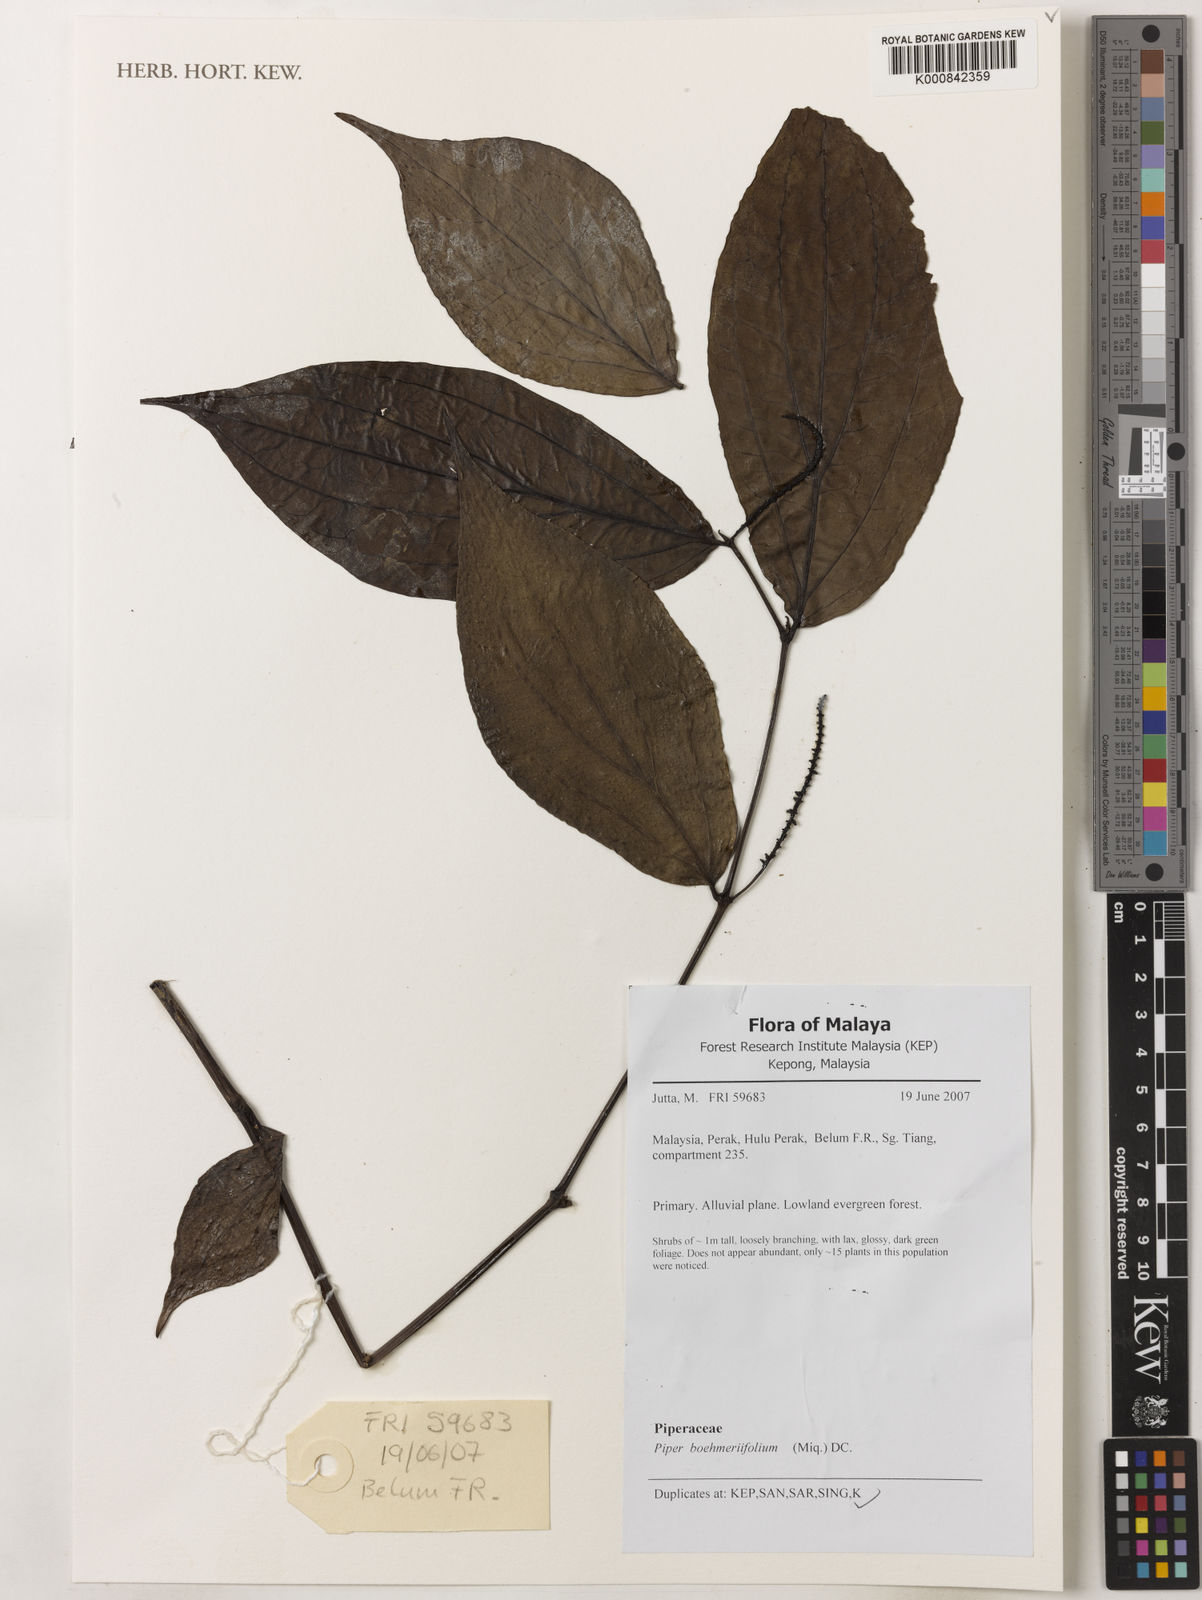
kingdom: Plantae
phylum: Tracheophyta
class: Magnoliopsida
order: Piperales
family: Piperaceae
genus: Piper
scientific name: Piper boehmeriifolium
